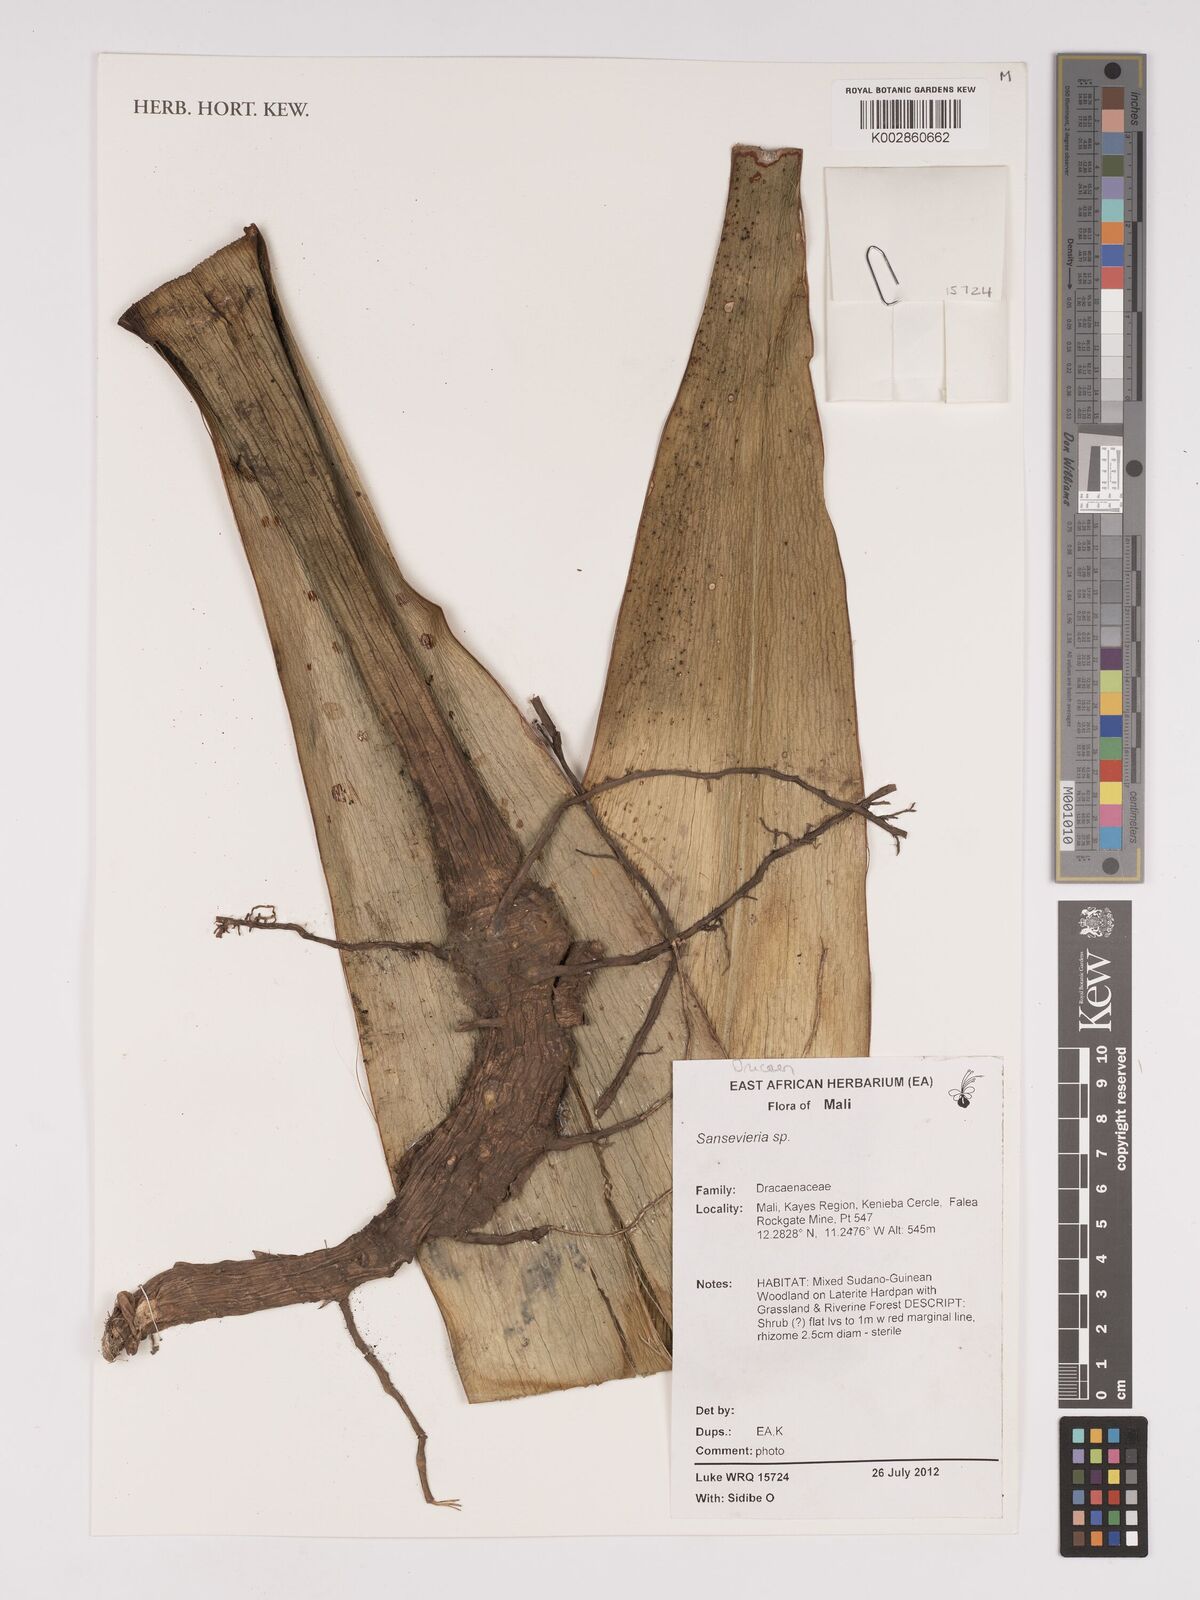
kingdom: Plantae
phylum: Tracheophyta
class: Liliopsida
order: Asparagales
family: Asparagaceae
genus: Dracaena
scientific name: Dracaena
